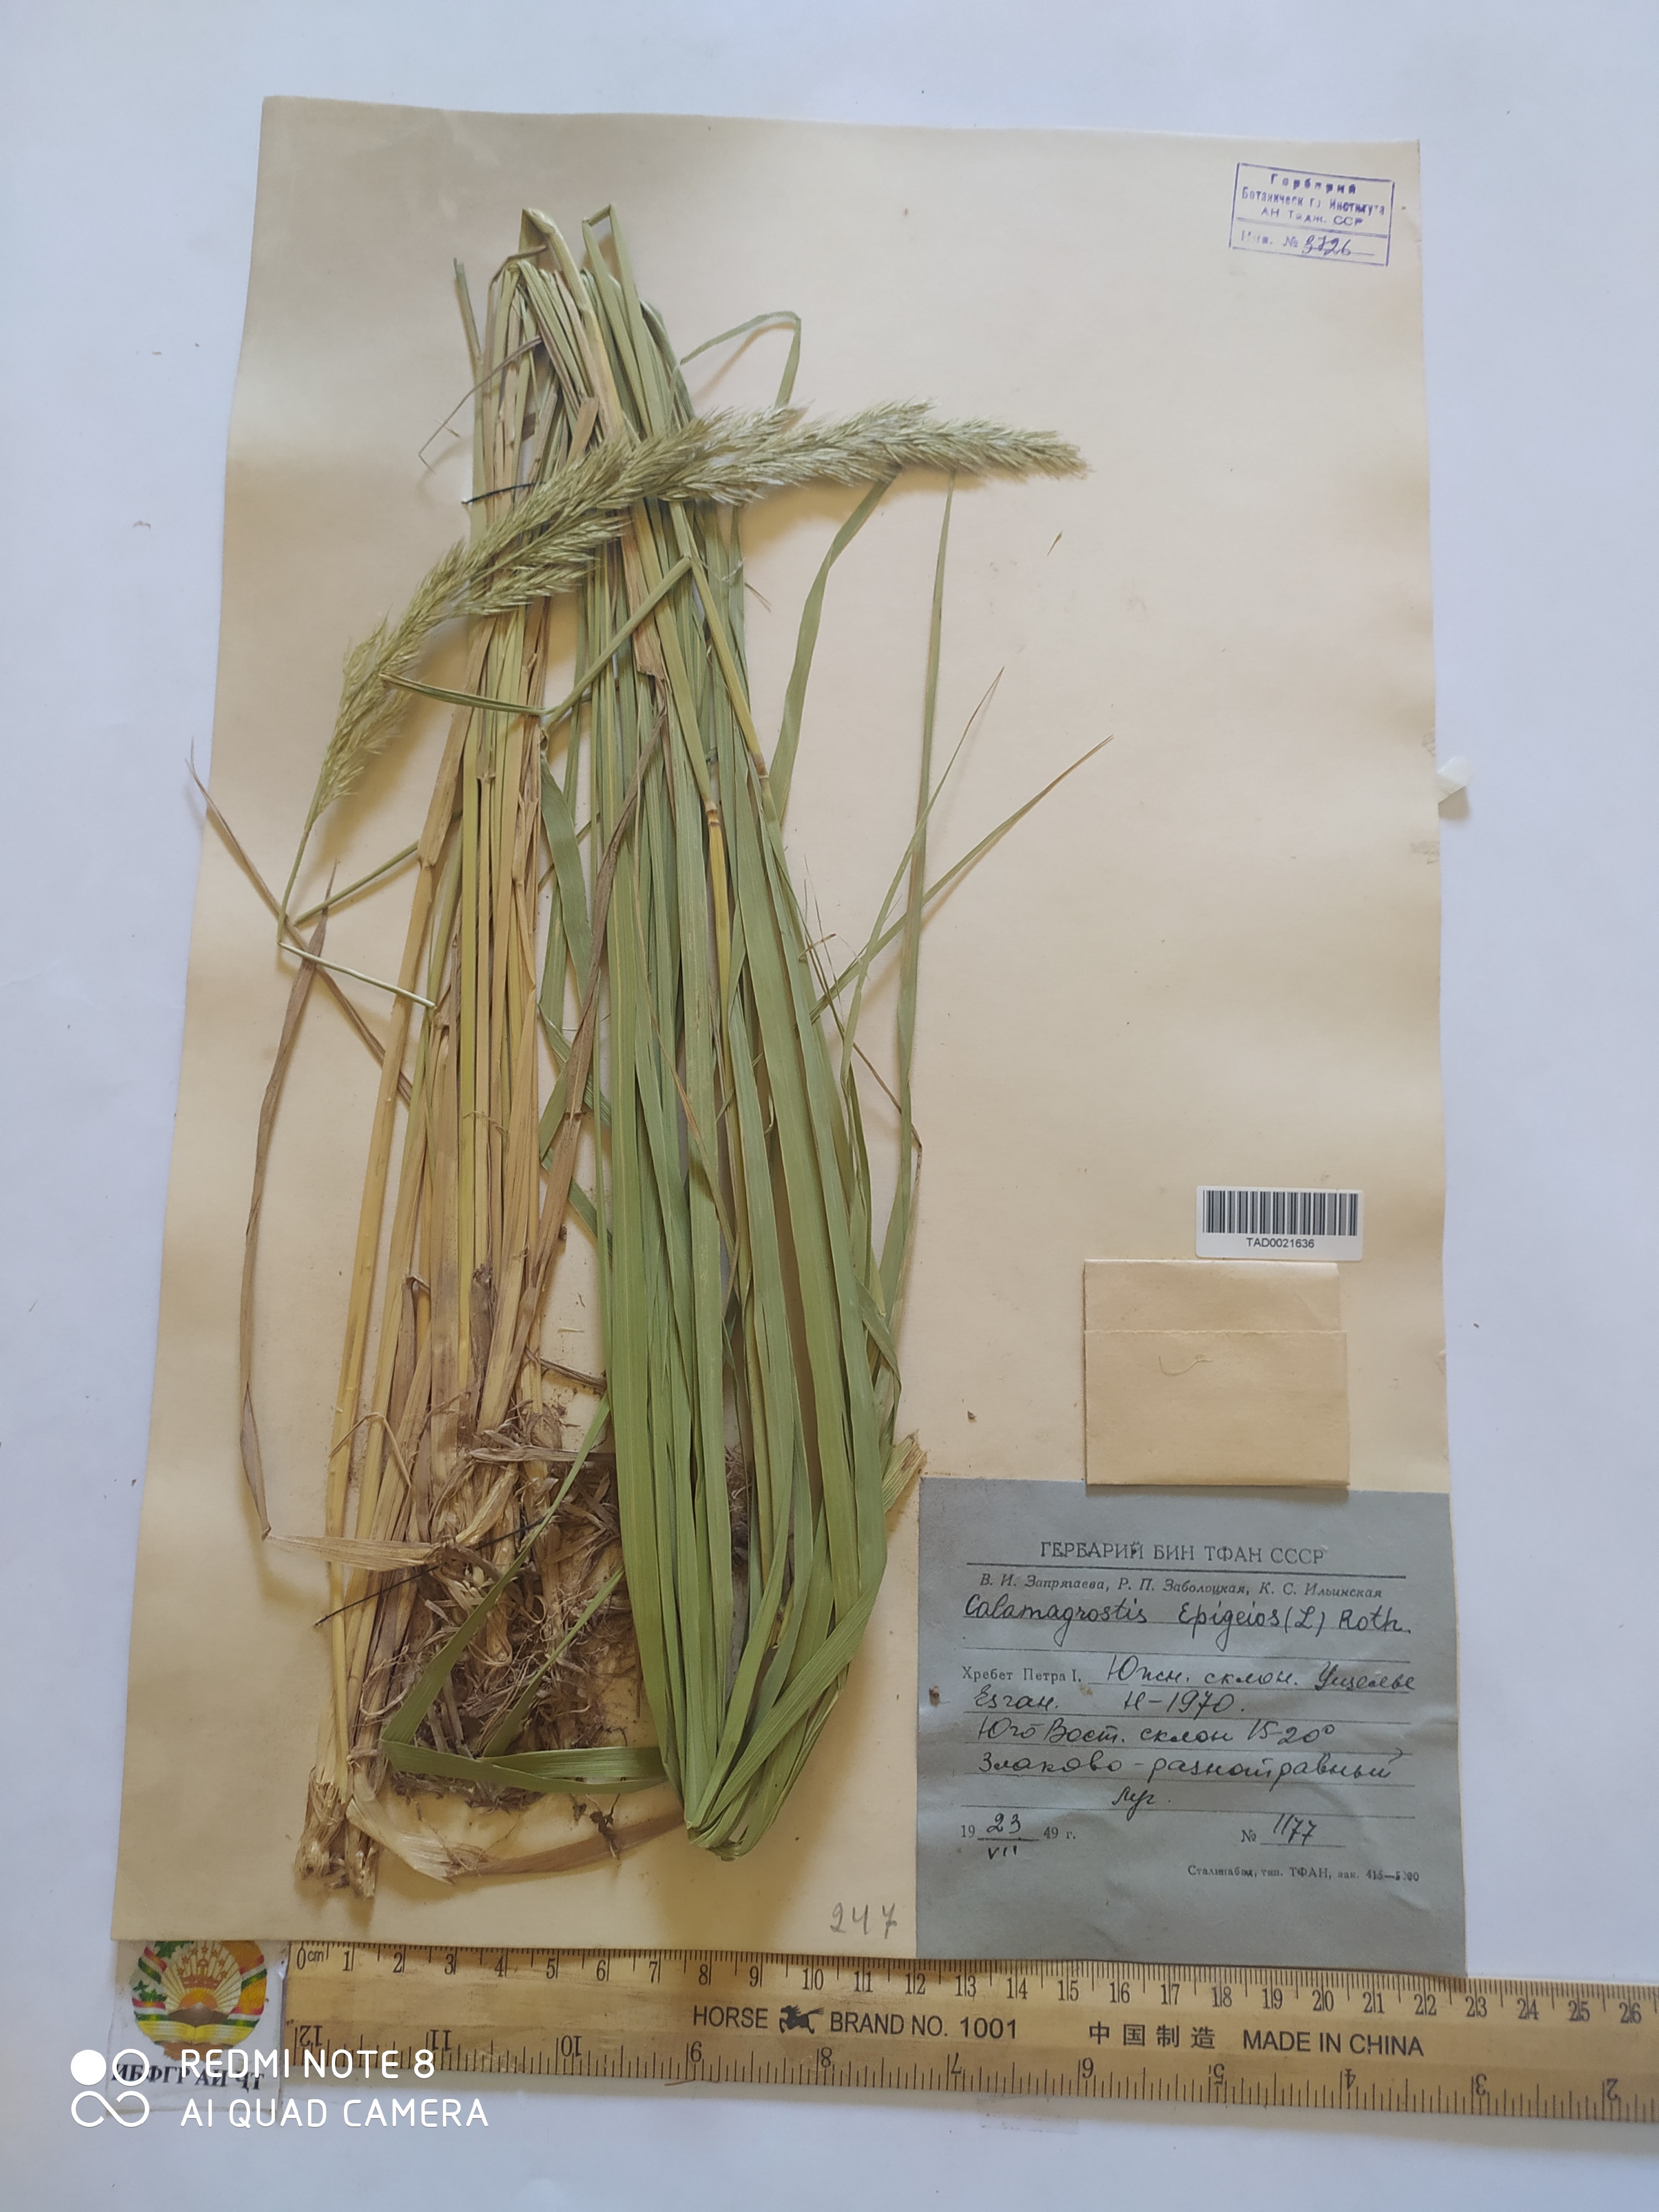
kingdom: Plantae
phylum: Tracheophyta
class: Liliopsida
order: Poales
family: Poaceae
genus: Calamagrostis
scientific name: Calamagrostis epigejos
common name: Wood small-reed
